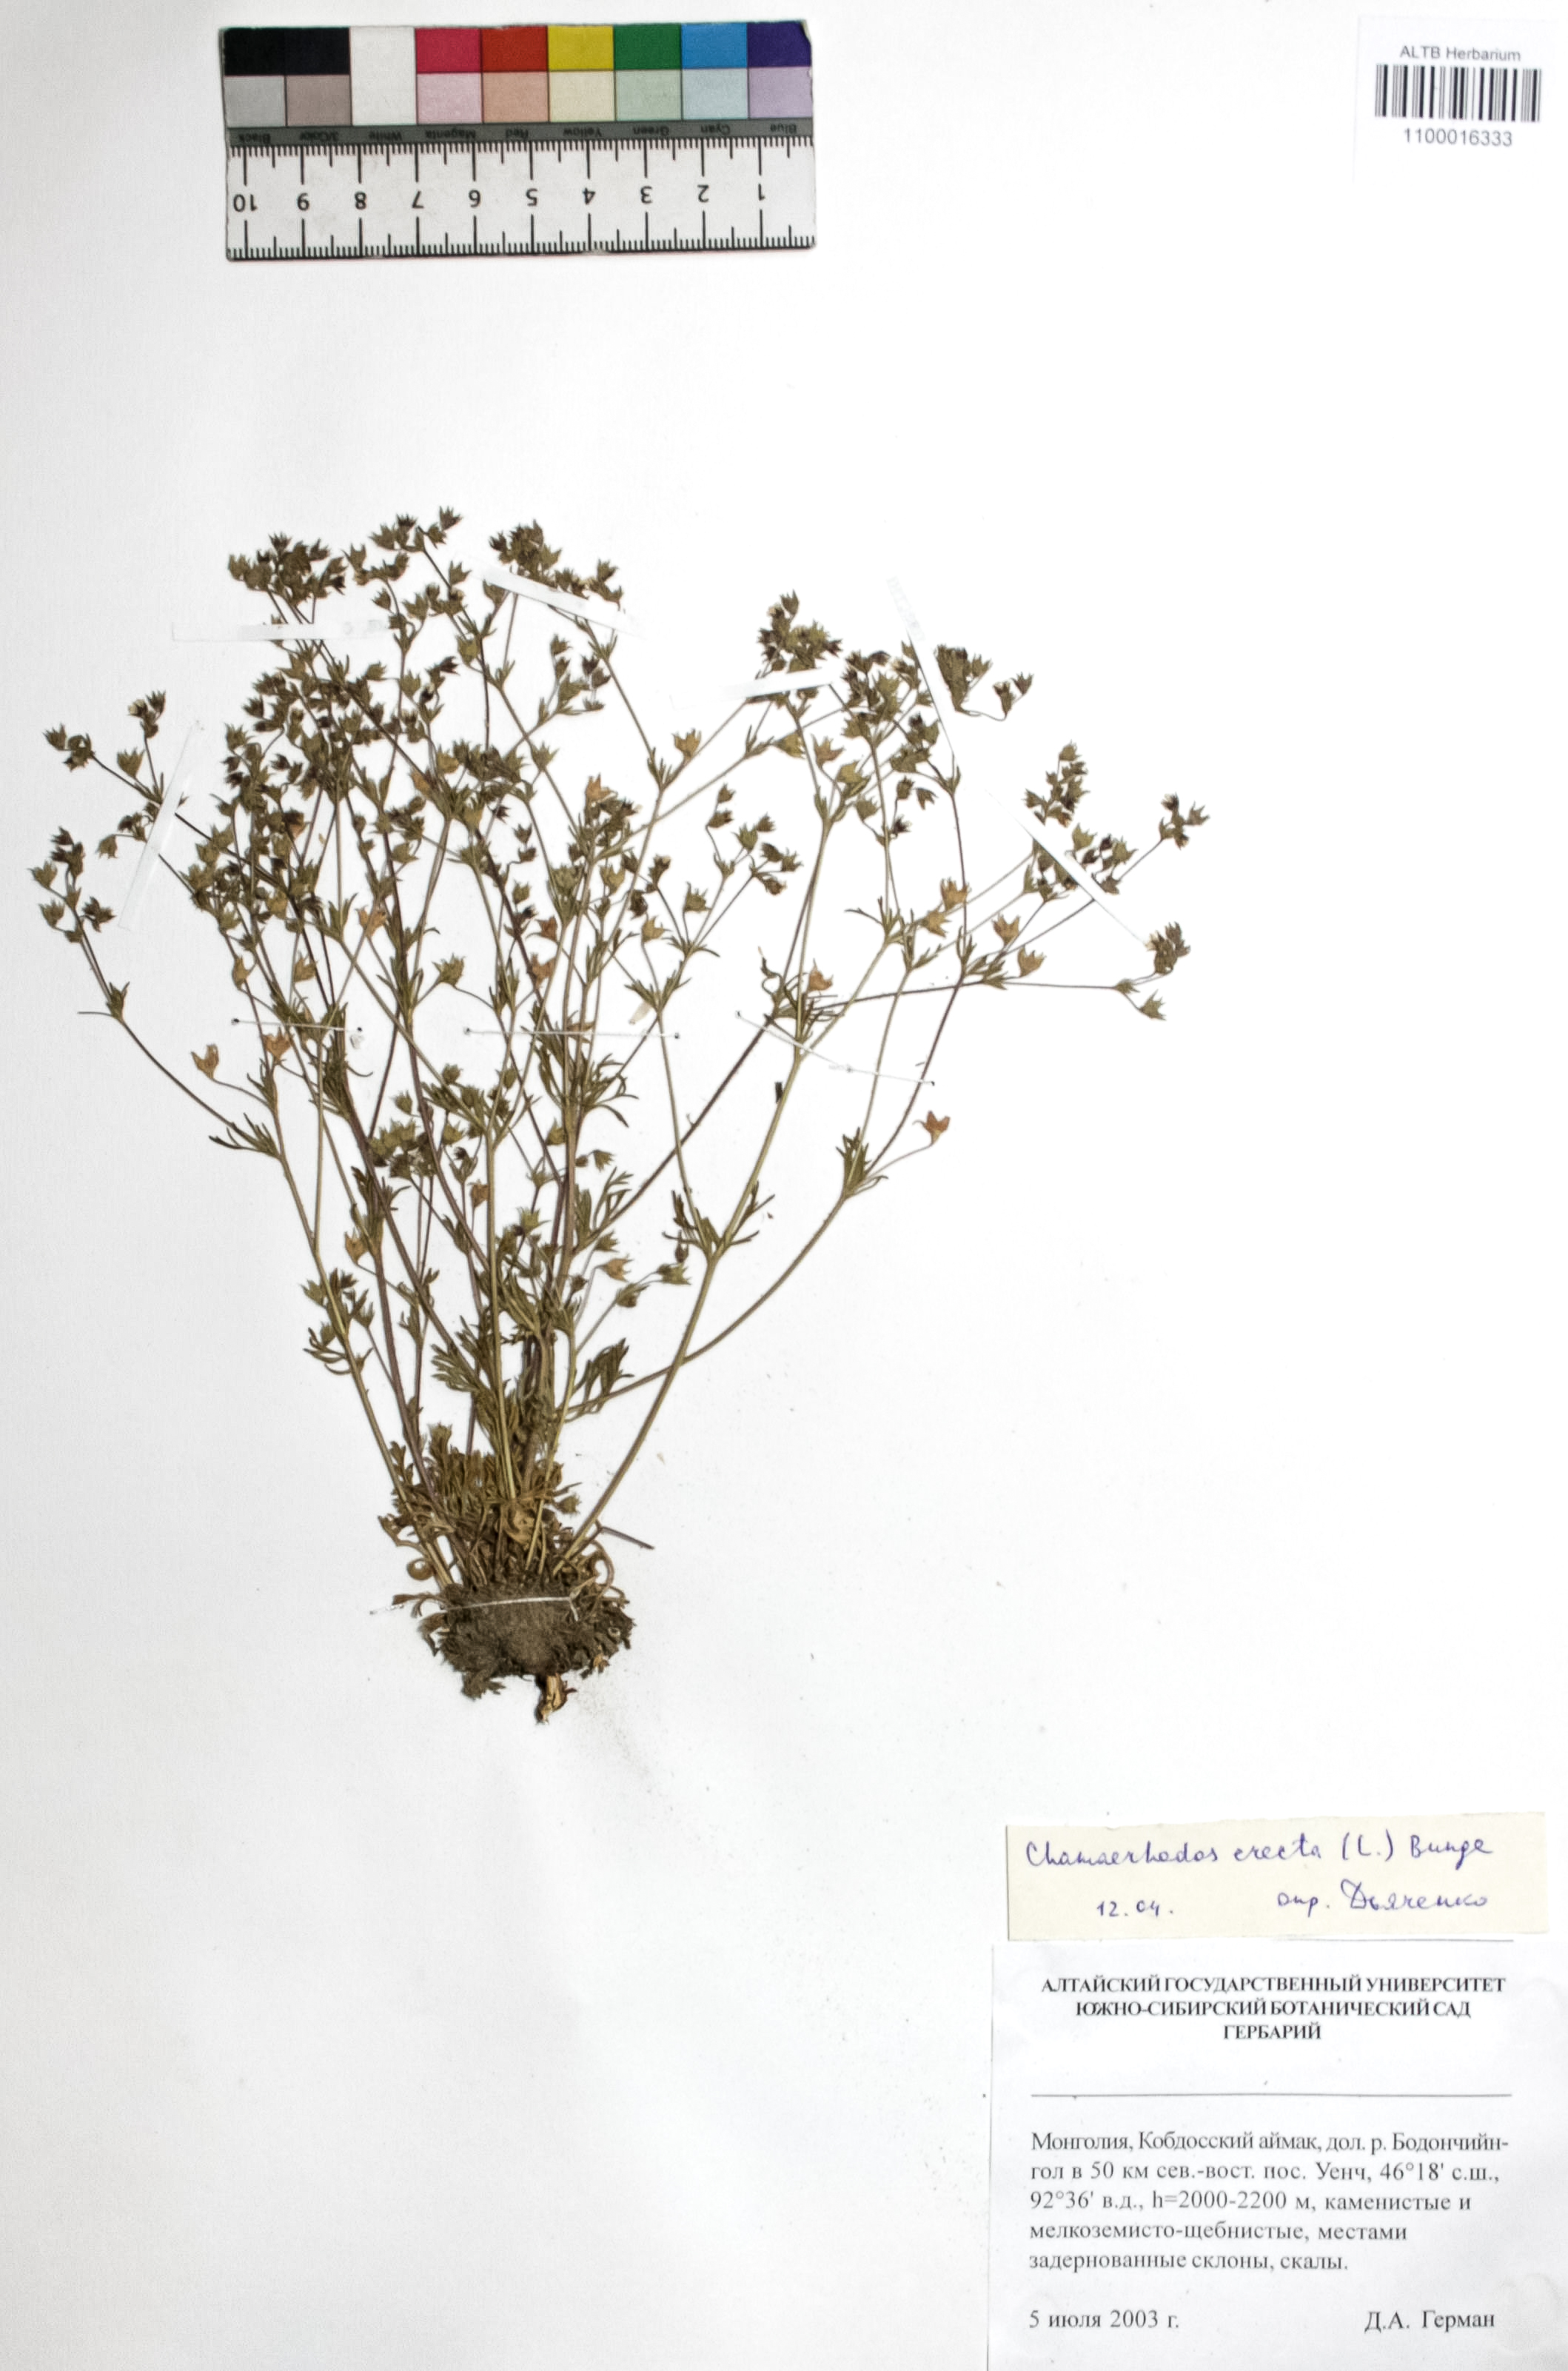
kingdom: Plantae
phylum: Tracheophyta
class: Magnoliopsida
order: Rosales
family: Rosaceae
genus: Chamaerhodos
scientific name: Chamaerhodos erecta
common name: American chamaerhodos
